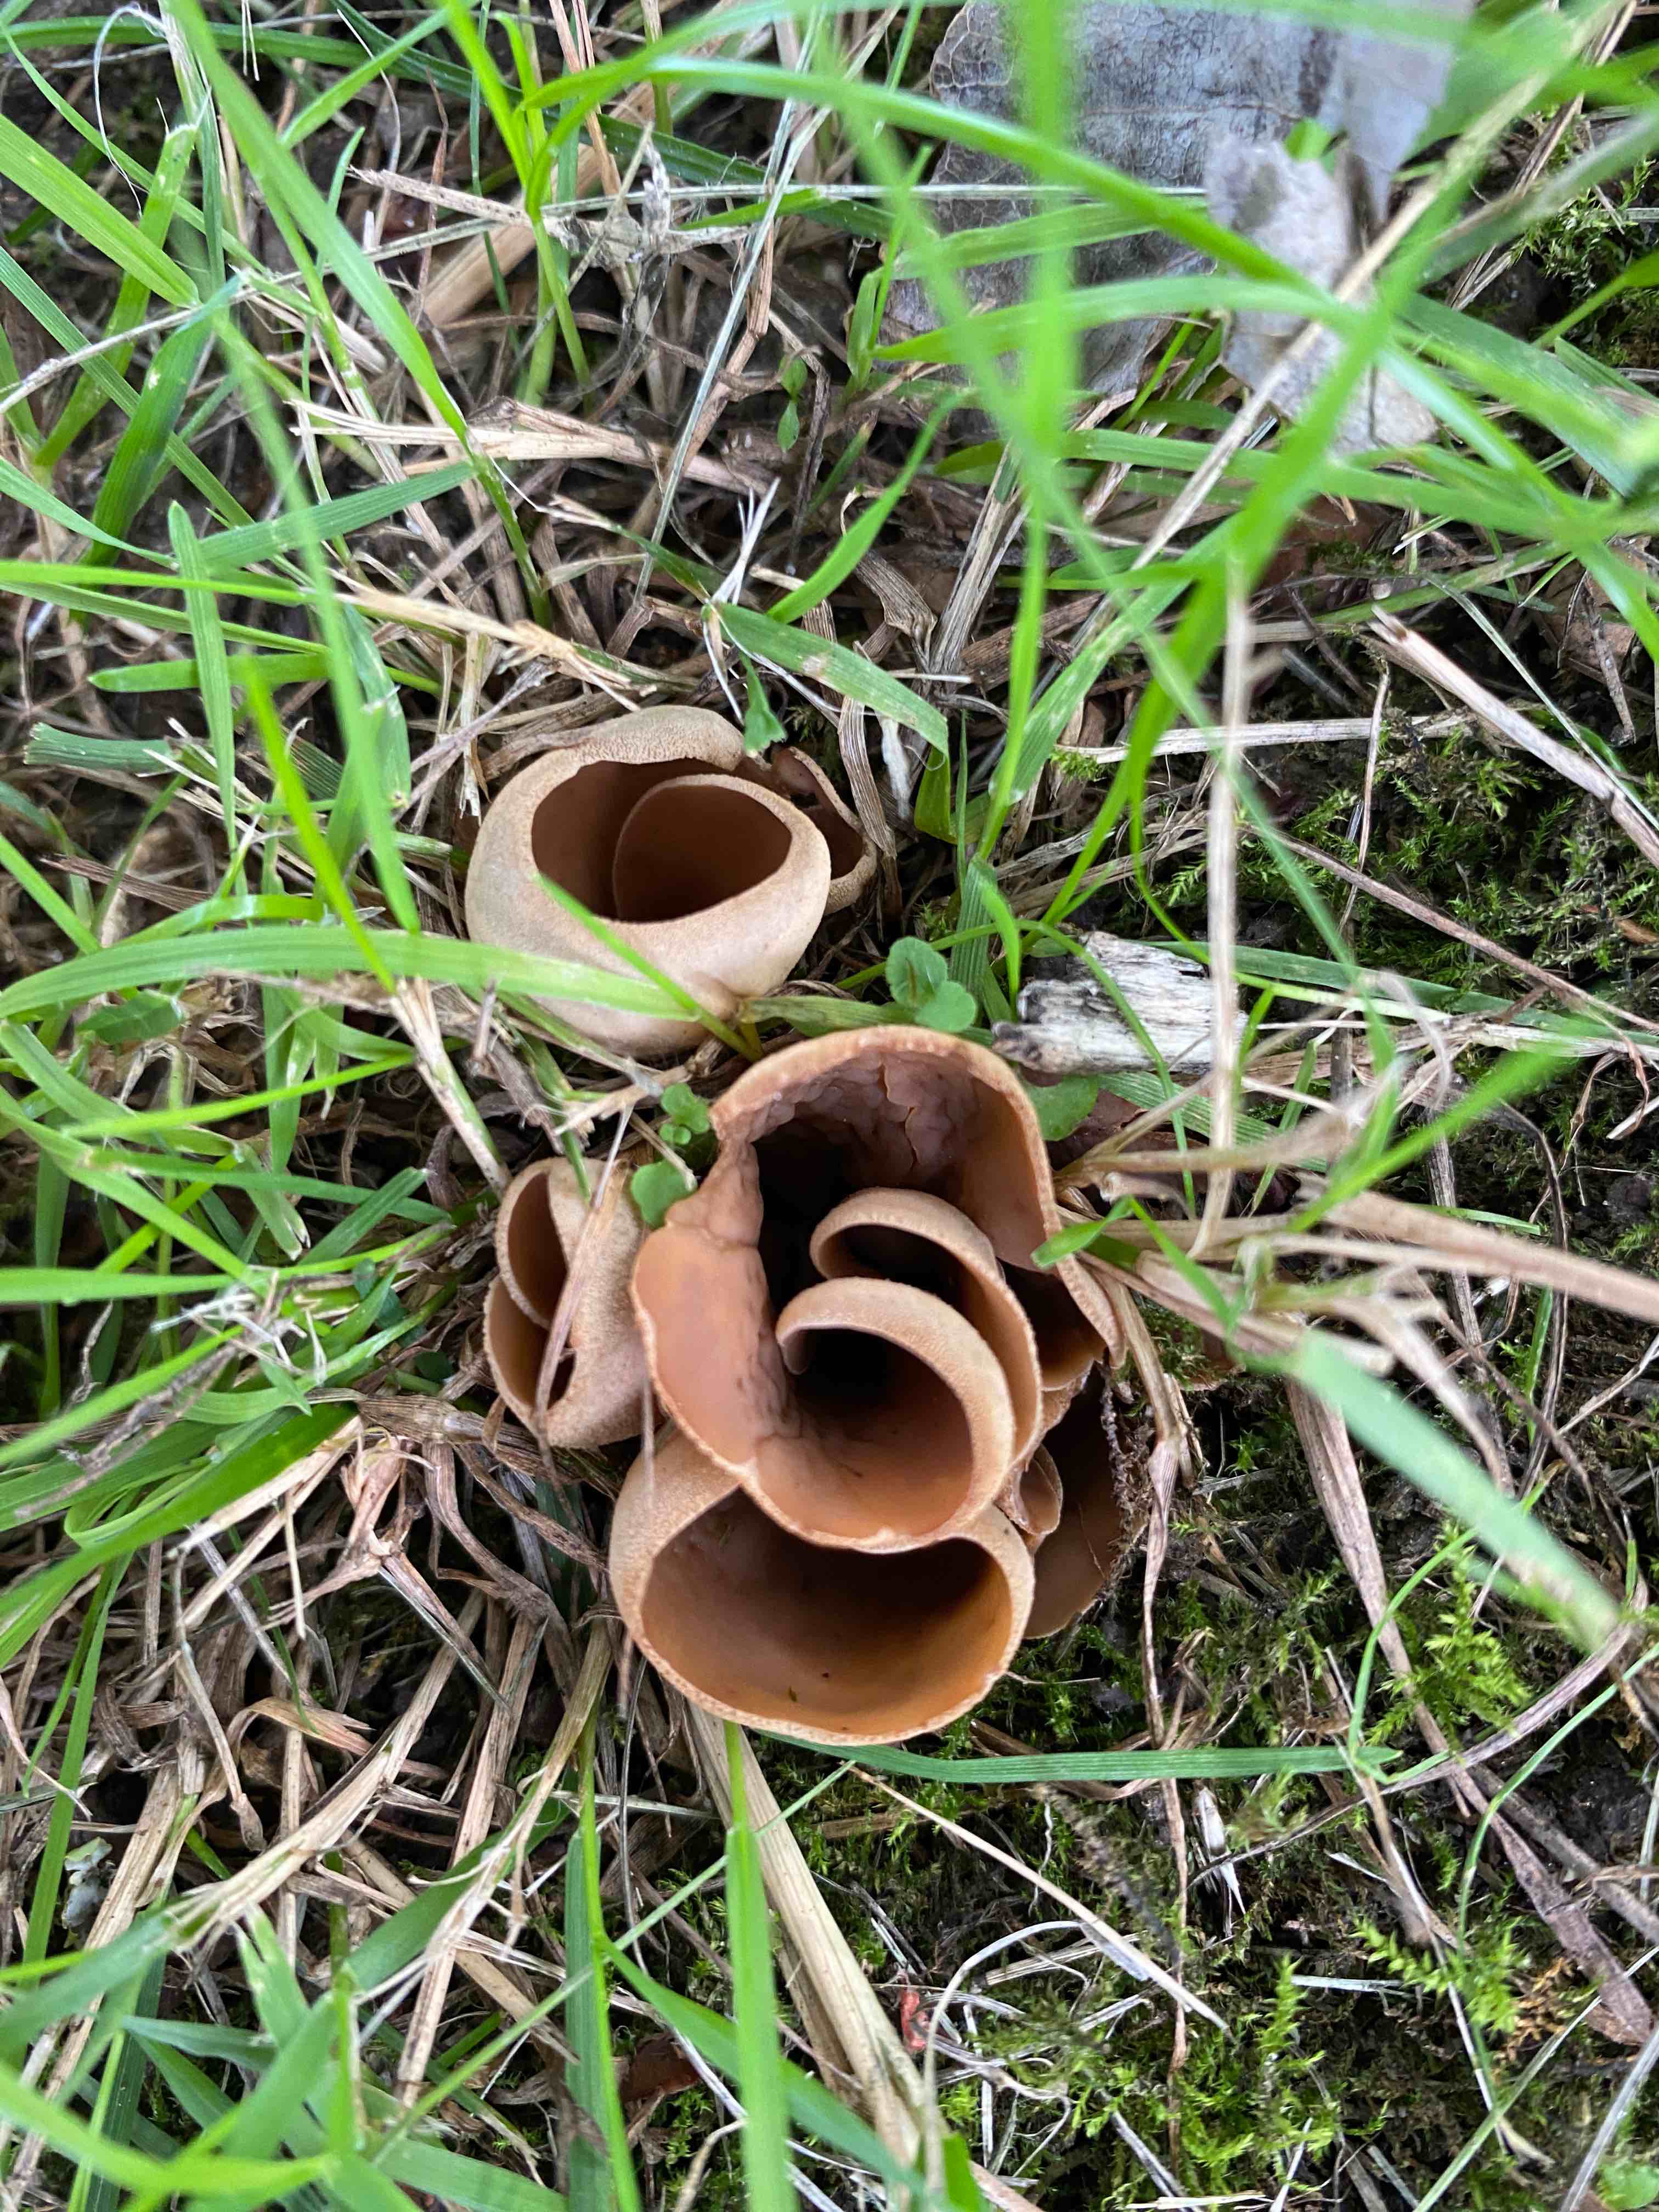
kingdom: Fungi
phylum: Ascomycota
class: Pezizomycetes
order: Pezizales
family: Otideaceae
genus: Otidea
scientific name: Otidea alutacea
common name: læder-ørebæger
